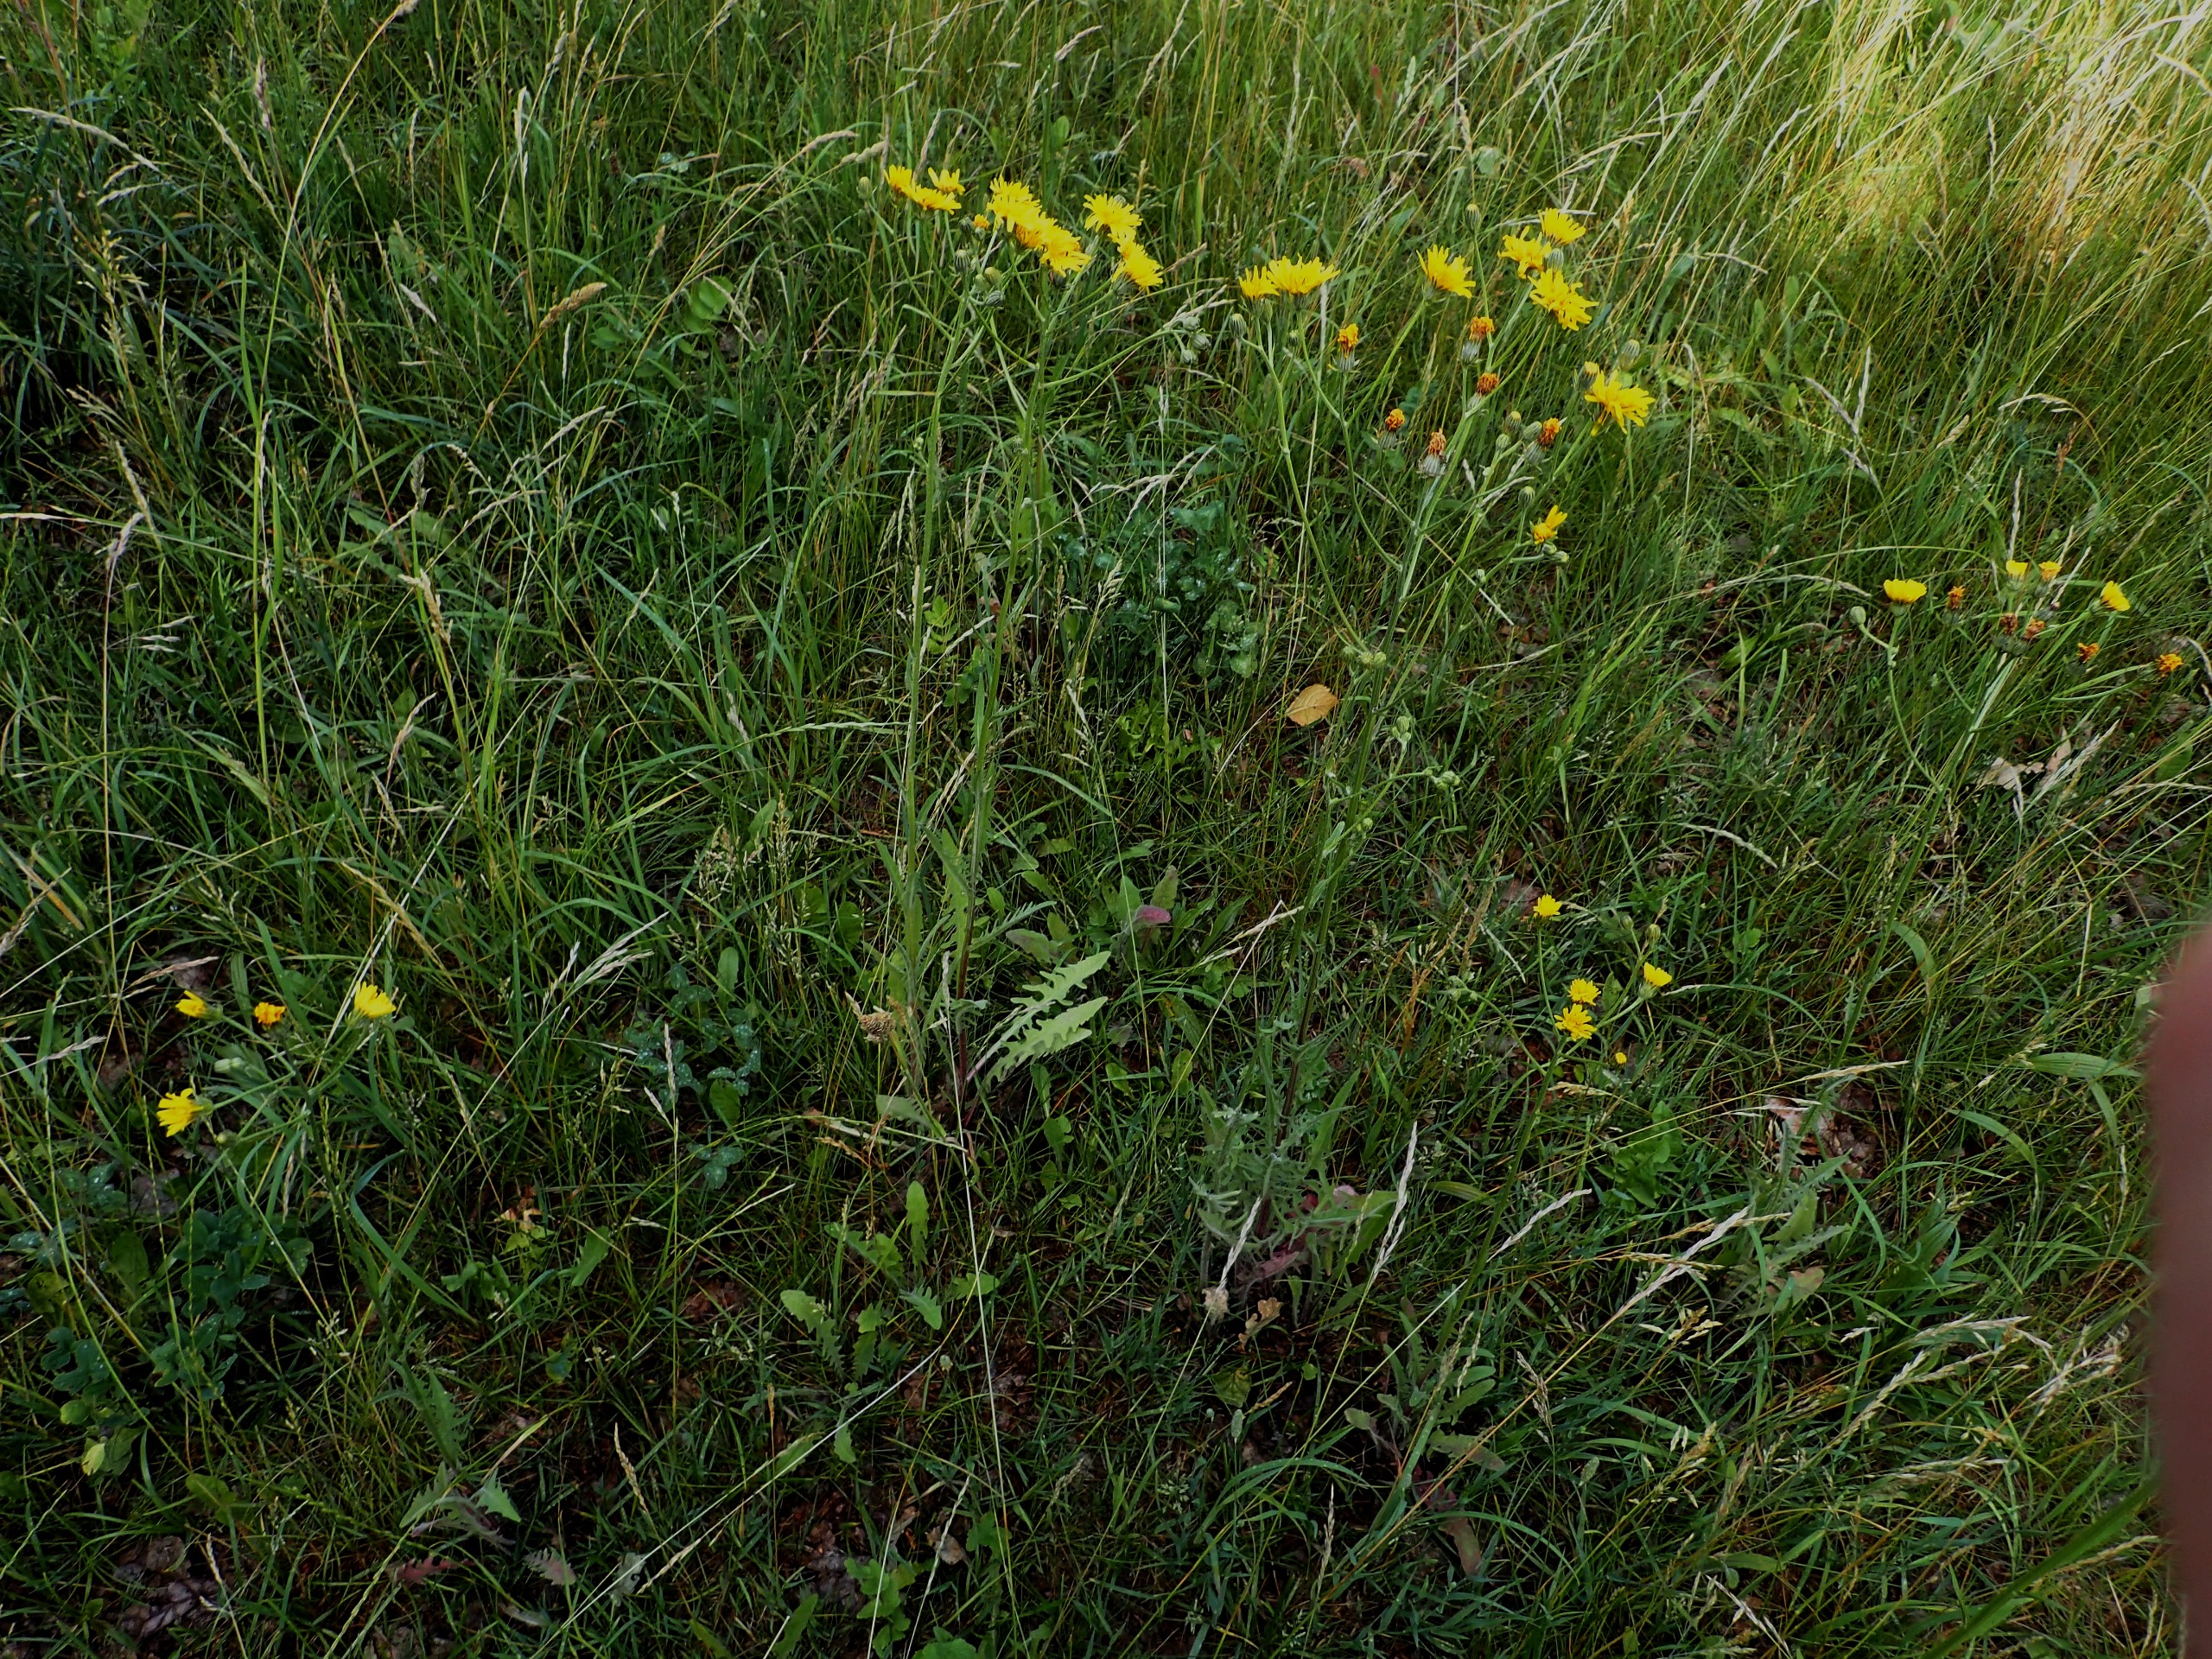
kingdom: Plantae
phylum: Tracheophyta
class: Magnoliopsida
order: Asterales
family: Asteraceae
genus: Crepis
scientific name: Crepis biennis
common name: Toårig høgeskæg
